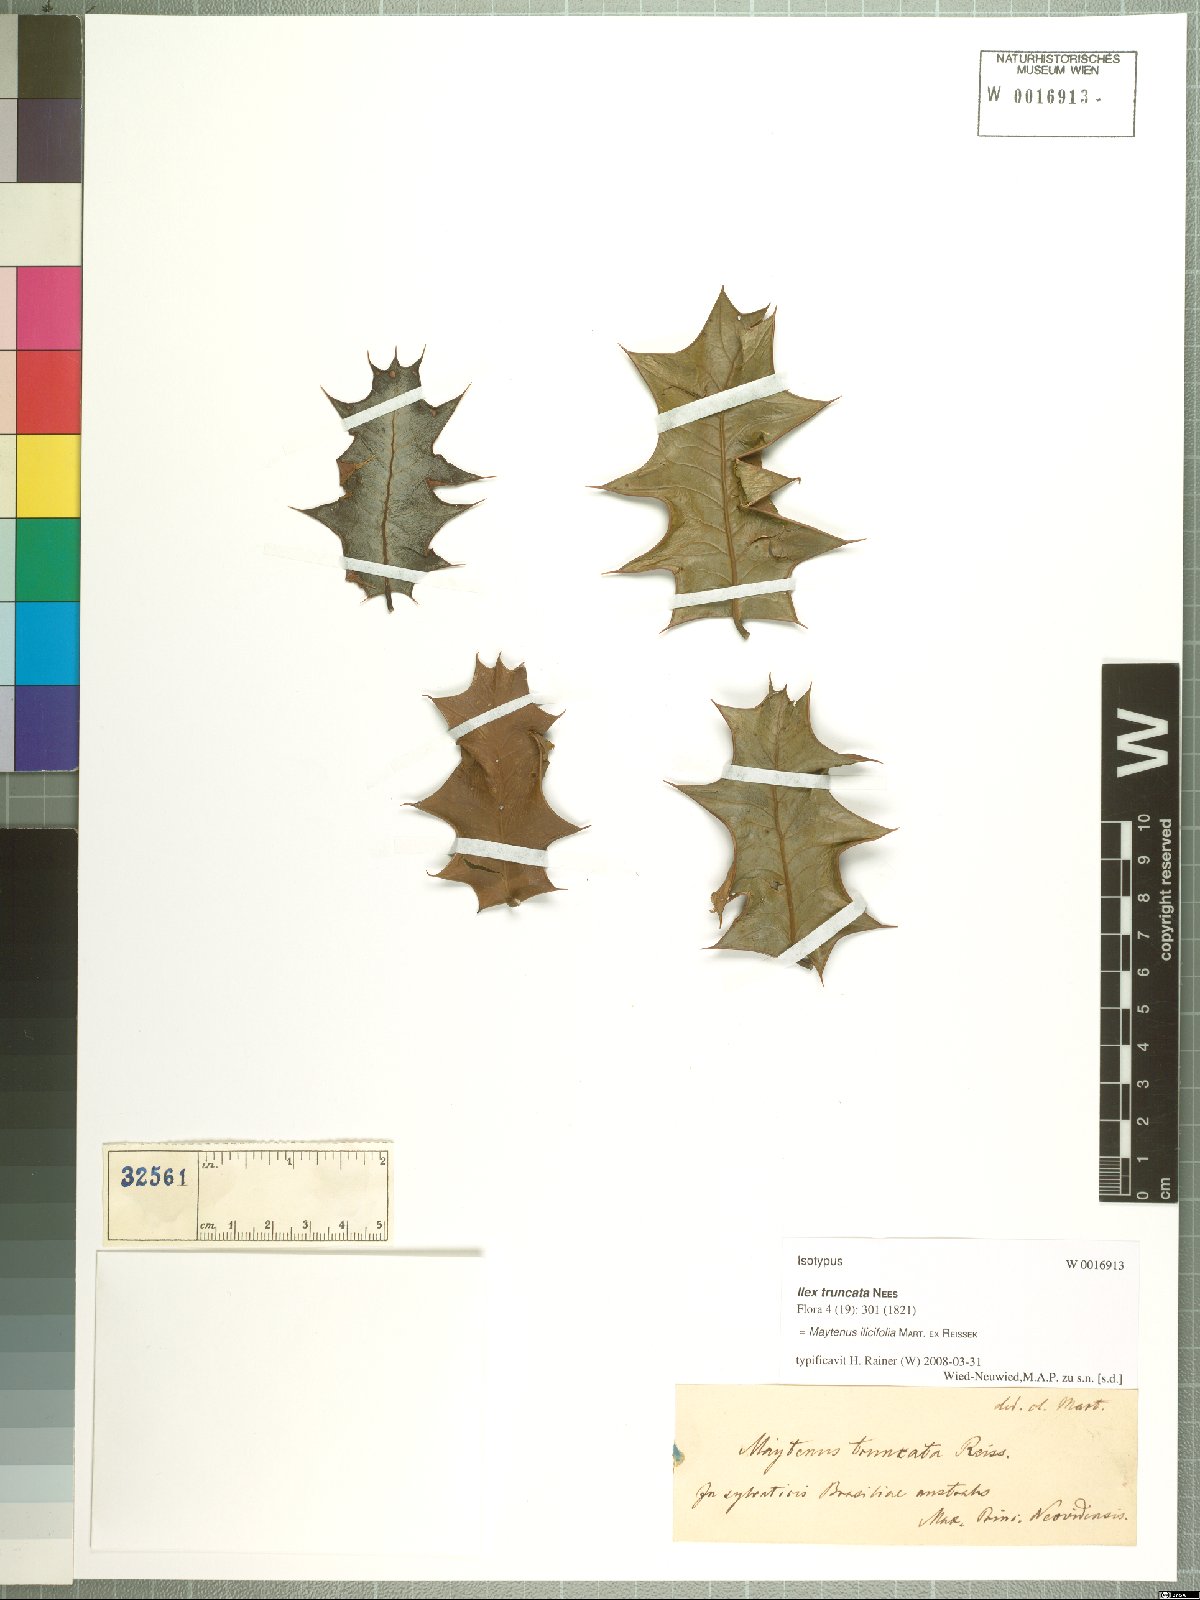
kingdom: Plantae
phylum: Tracheophyta
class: Magnoliopsida
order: Celastrales
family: Celastraceae
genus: Monteverdia
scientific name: Monteverdia truncata
